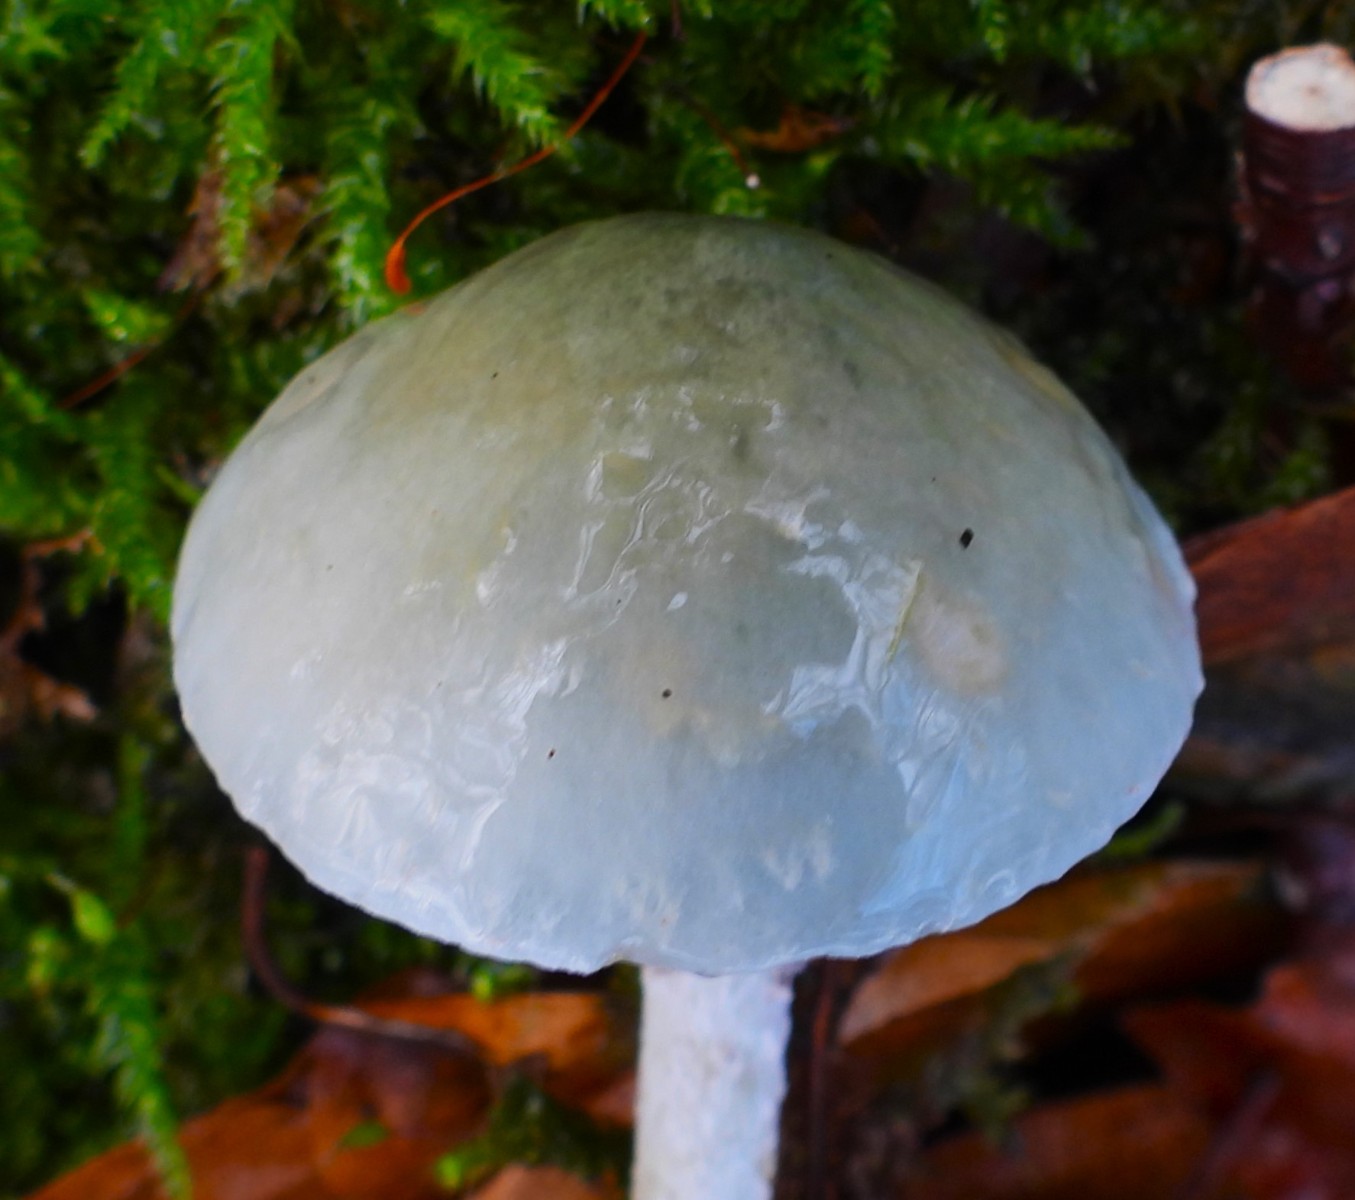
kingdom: Fungi
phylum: Basidiomycota
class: Agaricomycetes
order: Agaricales
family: Strophariaceae
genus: Stropharia
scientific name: Stropharia cyanea
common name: blågrøn bredblad
